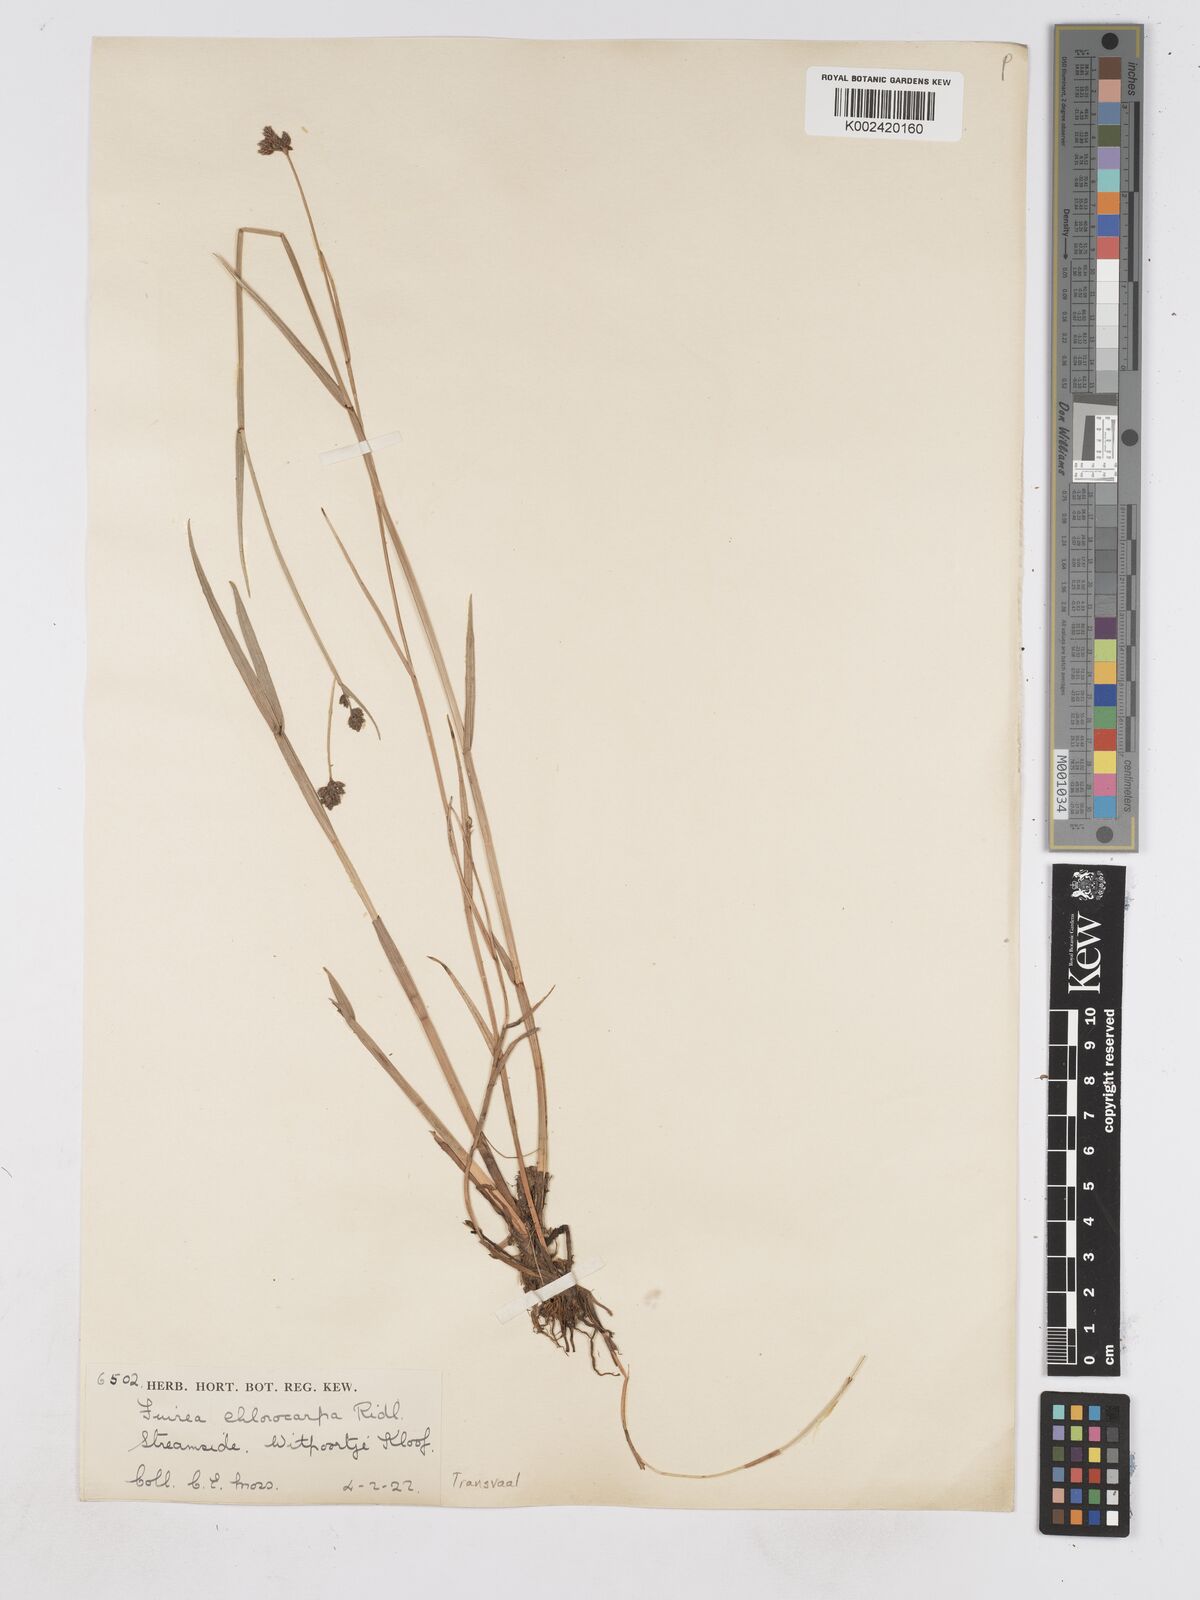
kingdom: Plantae
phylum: Tracheophyta
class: Liliopsida
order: Poales
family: Cyperaceae
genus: Fuirena
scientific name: Fuirena stricta
